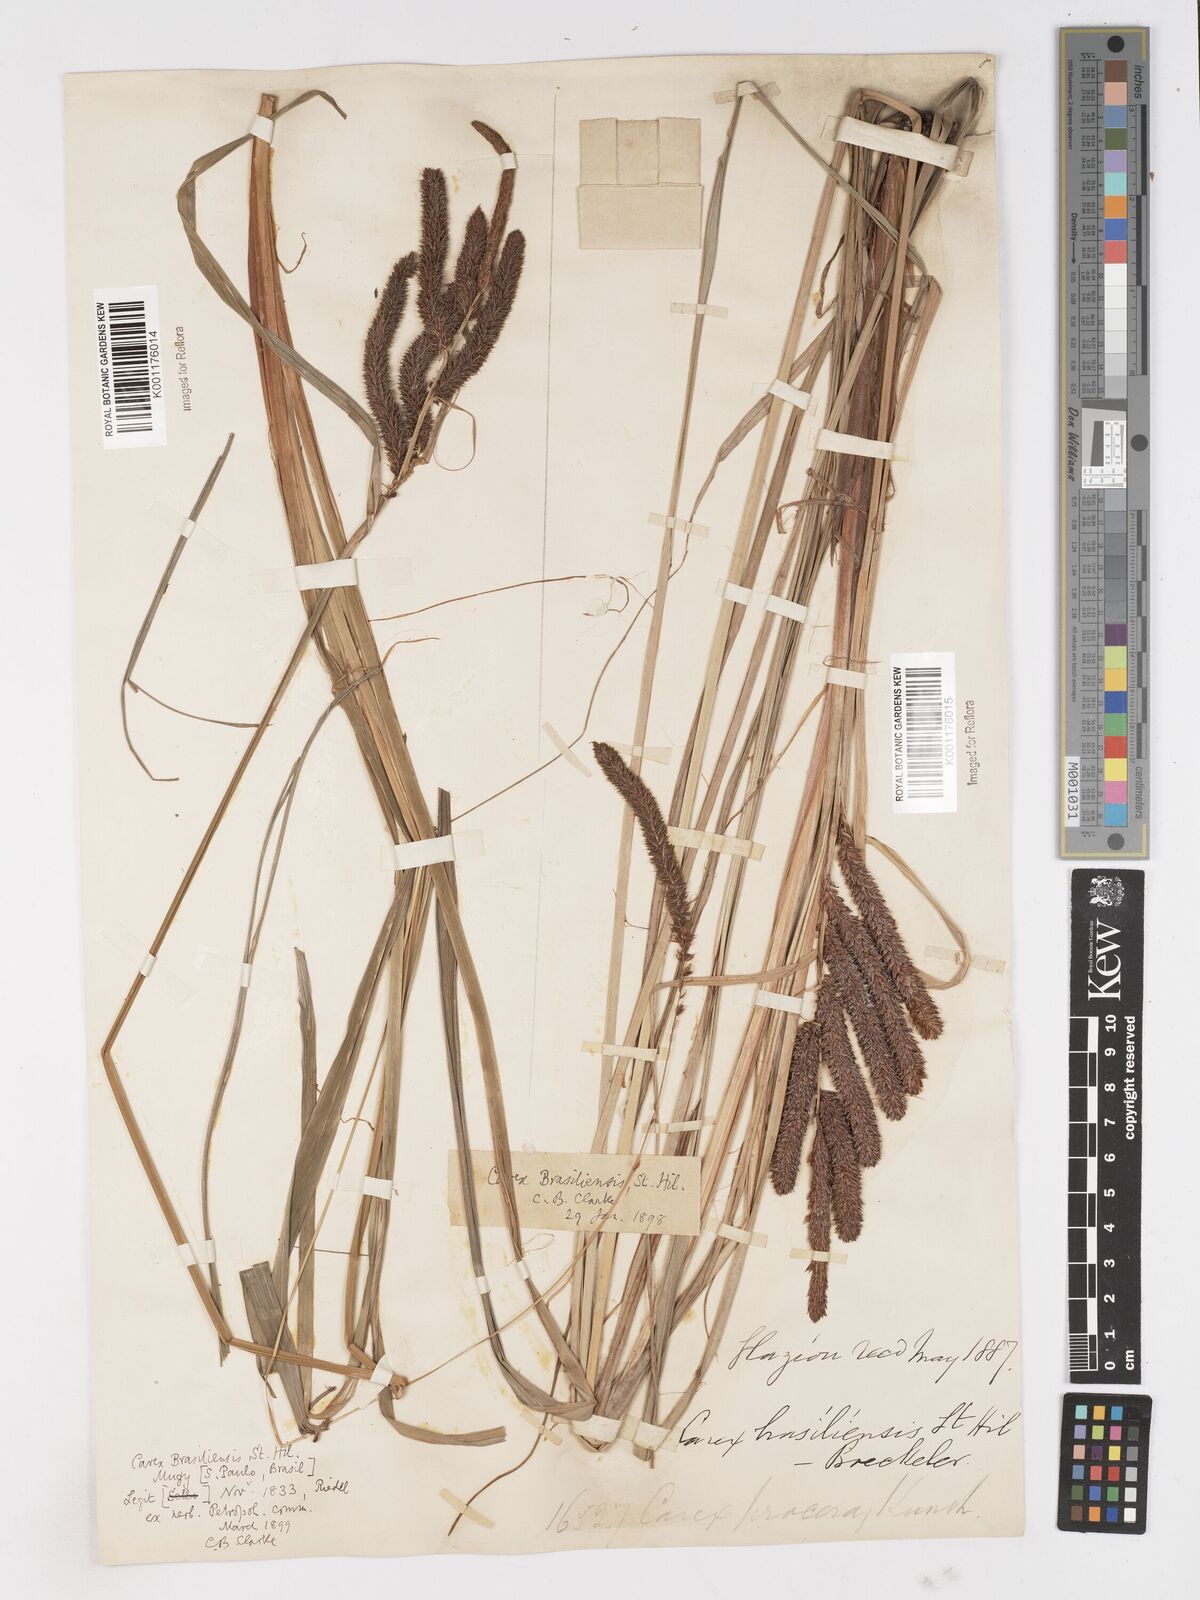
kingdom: Plantae
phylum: Tracheophyta
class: Liliopsida
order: Poales
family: Cyperaceae
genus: Carex
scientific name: Carex brasiliensis
